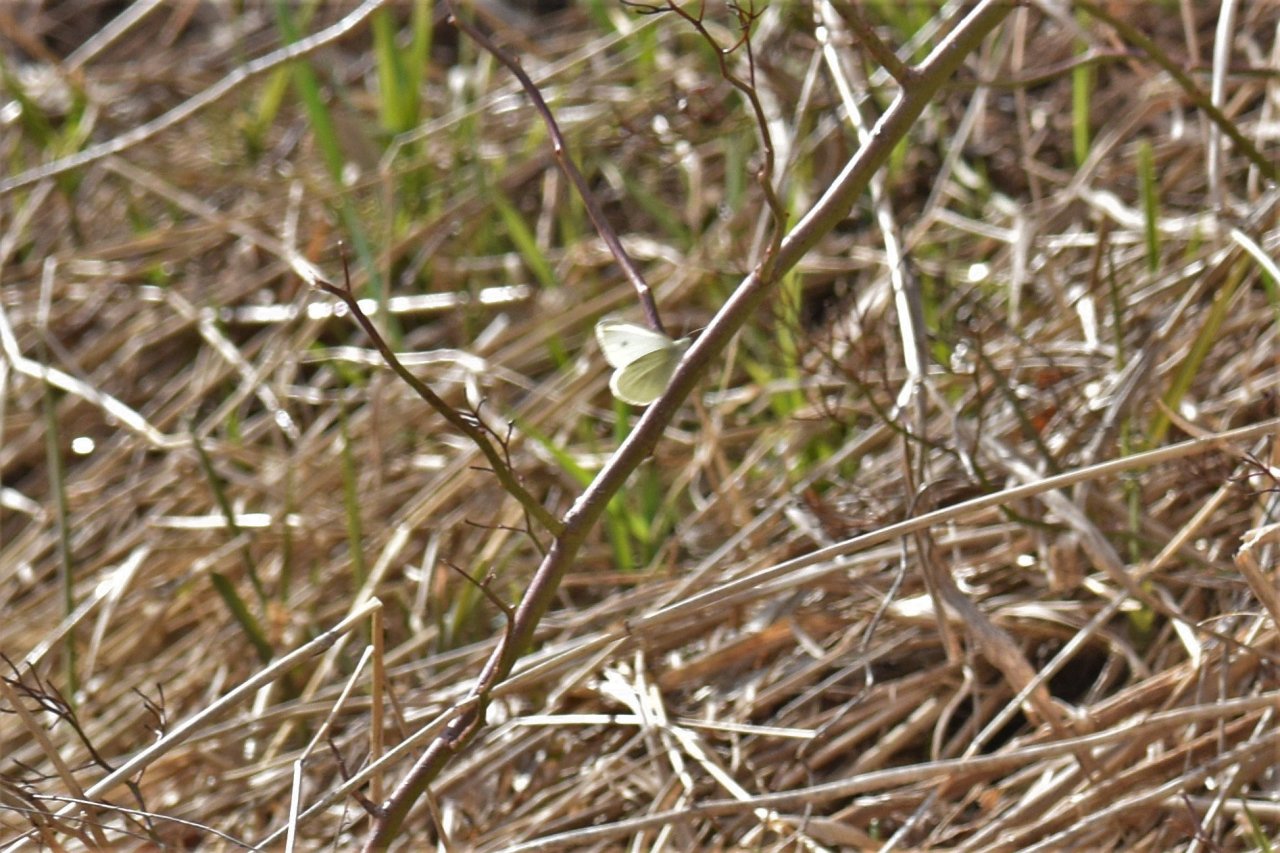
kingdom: Animalia
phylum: Arthropoda
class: Insecta
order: Lepidoptera
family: Pieridae
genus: Pieris
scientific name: Pieris rapae
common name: Cabbage White
